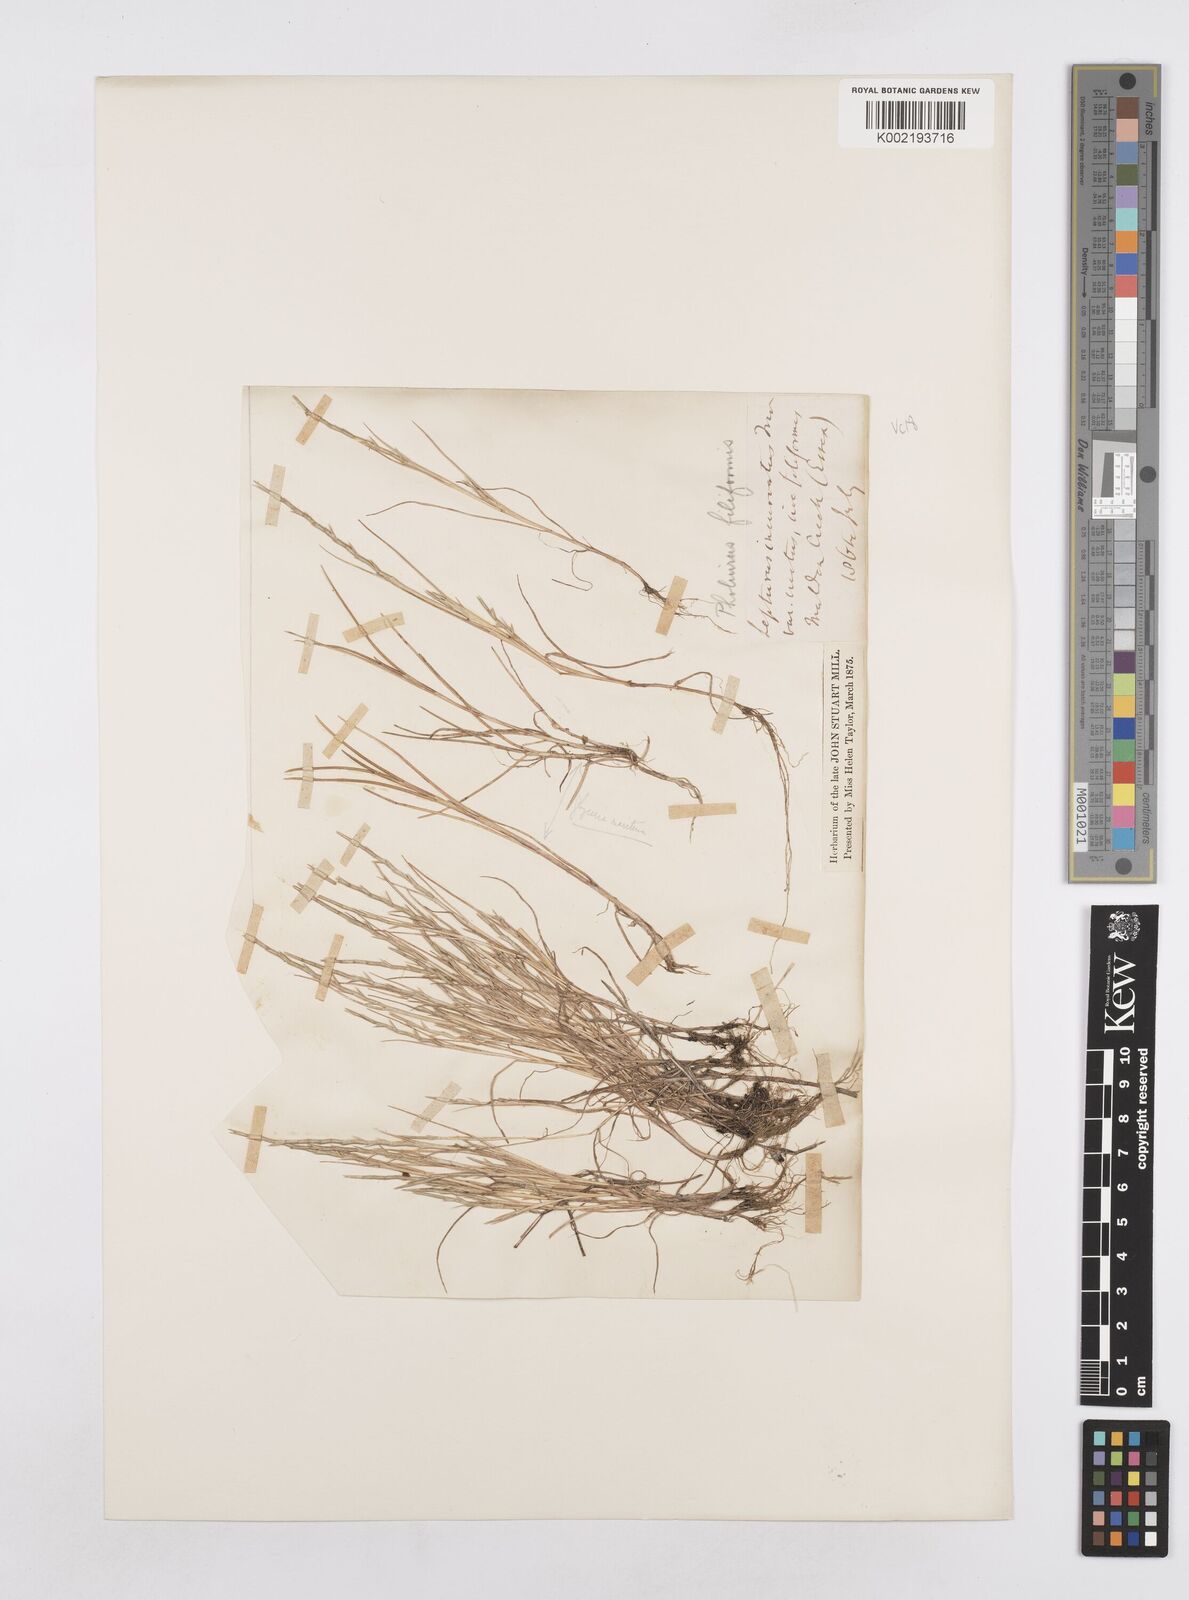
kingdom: Plantae
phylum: Tracheophyta
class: Liliopsida
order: Poales
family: Poaceae
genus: Parapholis
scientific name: Parapholis strigosa
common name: Hard-grass
